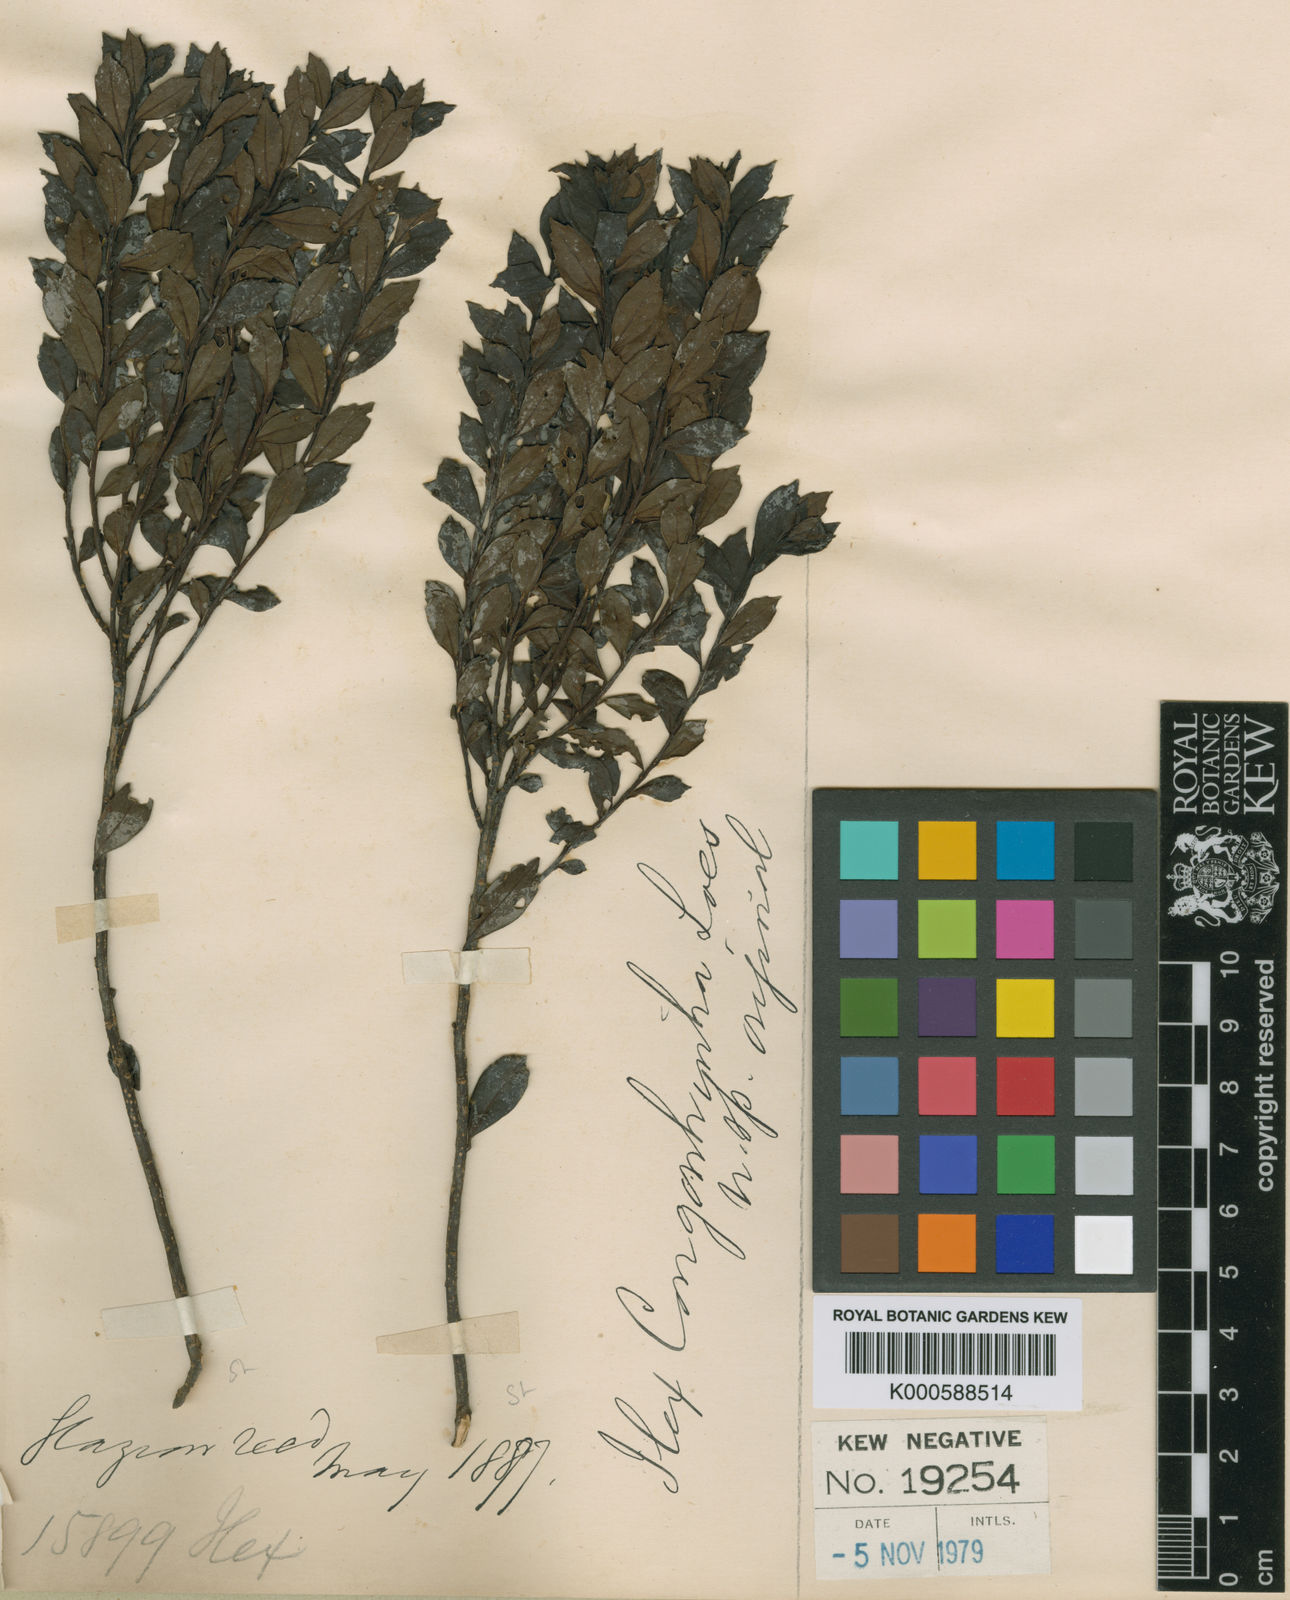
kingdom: Plantae
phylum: Tracheophyta
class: Magnoliopsida
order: Aquifoliales
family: Aquifoliaceae
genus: Ilex
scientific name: Ilex
